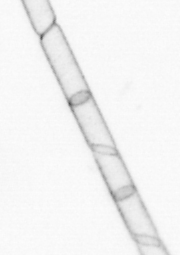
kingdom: Chromista
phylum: Ochrophyta
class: Bacillariophyceae
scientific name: Bacillariophyceae
